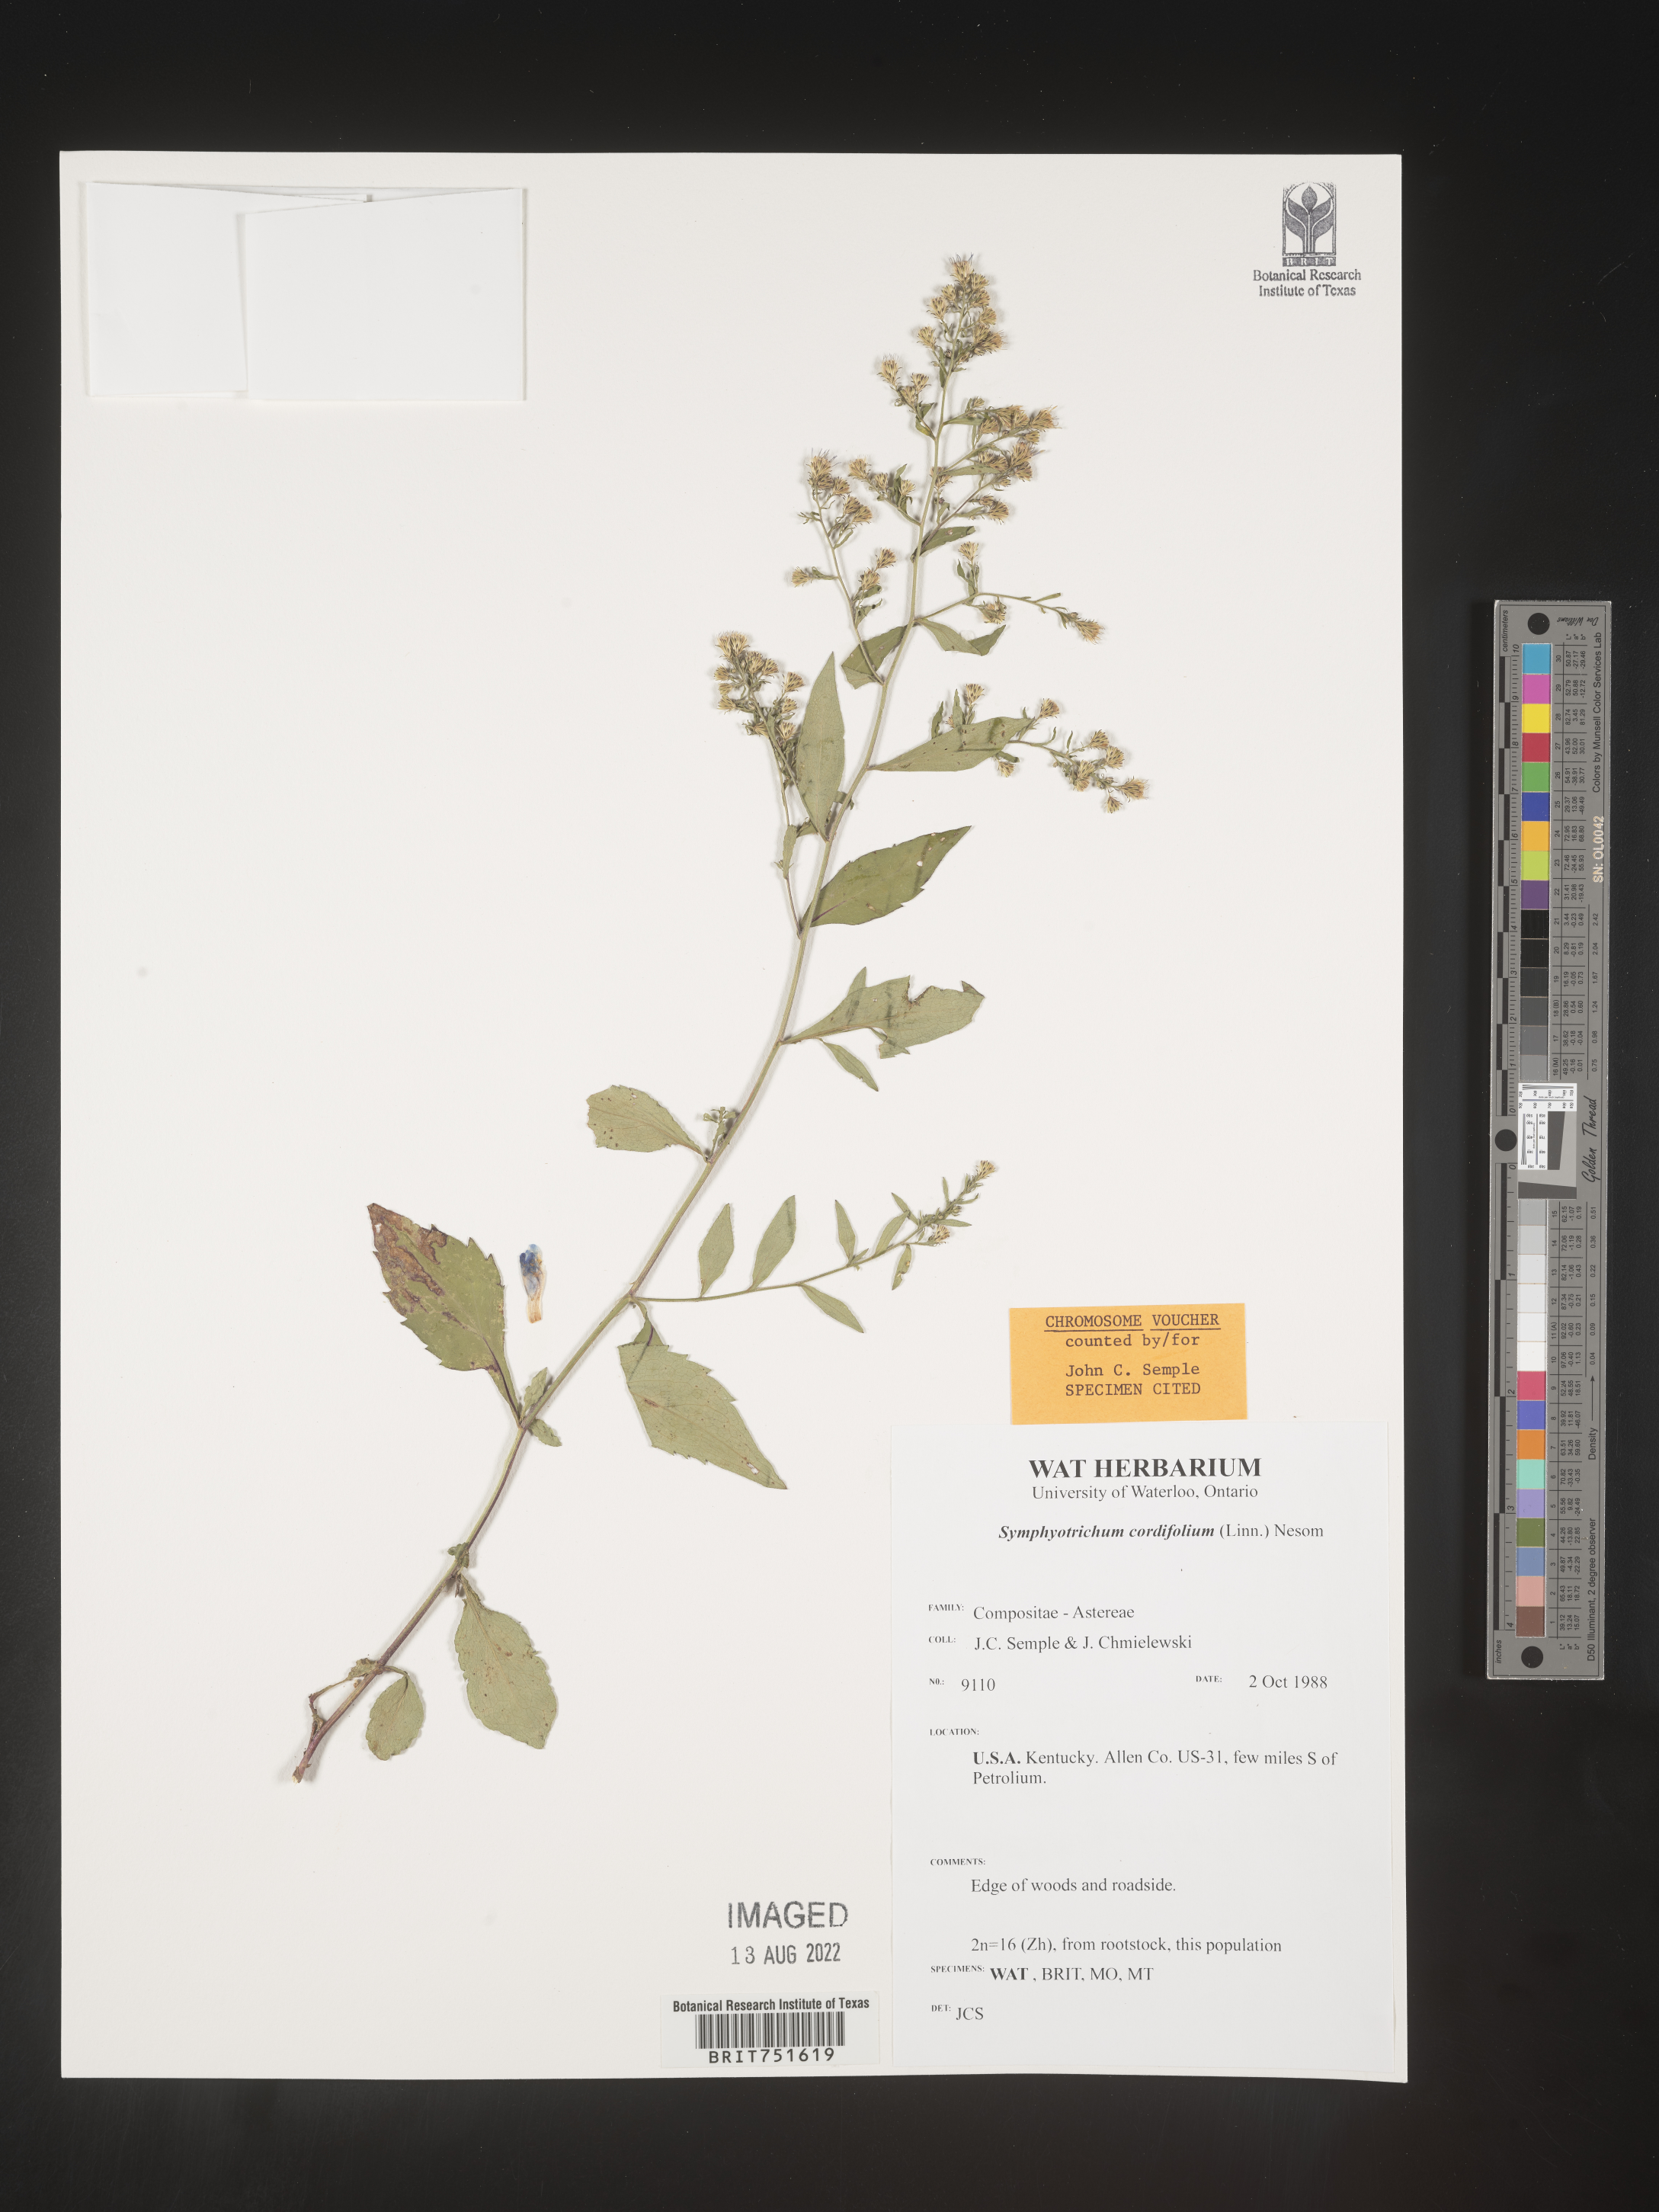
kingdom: Plantae
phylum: Tracheophyta
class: Magnoliopsida
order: Asterales
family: Asteraceae
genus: Symphyotrichum
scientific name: Symphyotrichum cordifolium
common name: Beeweed
